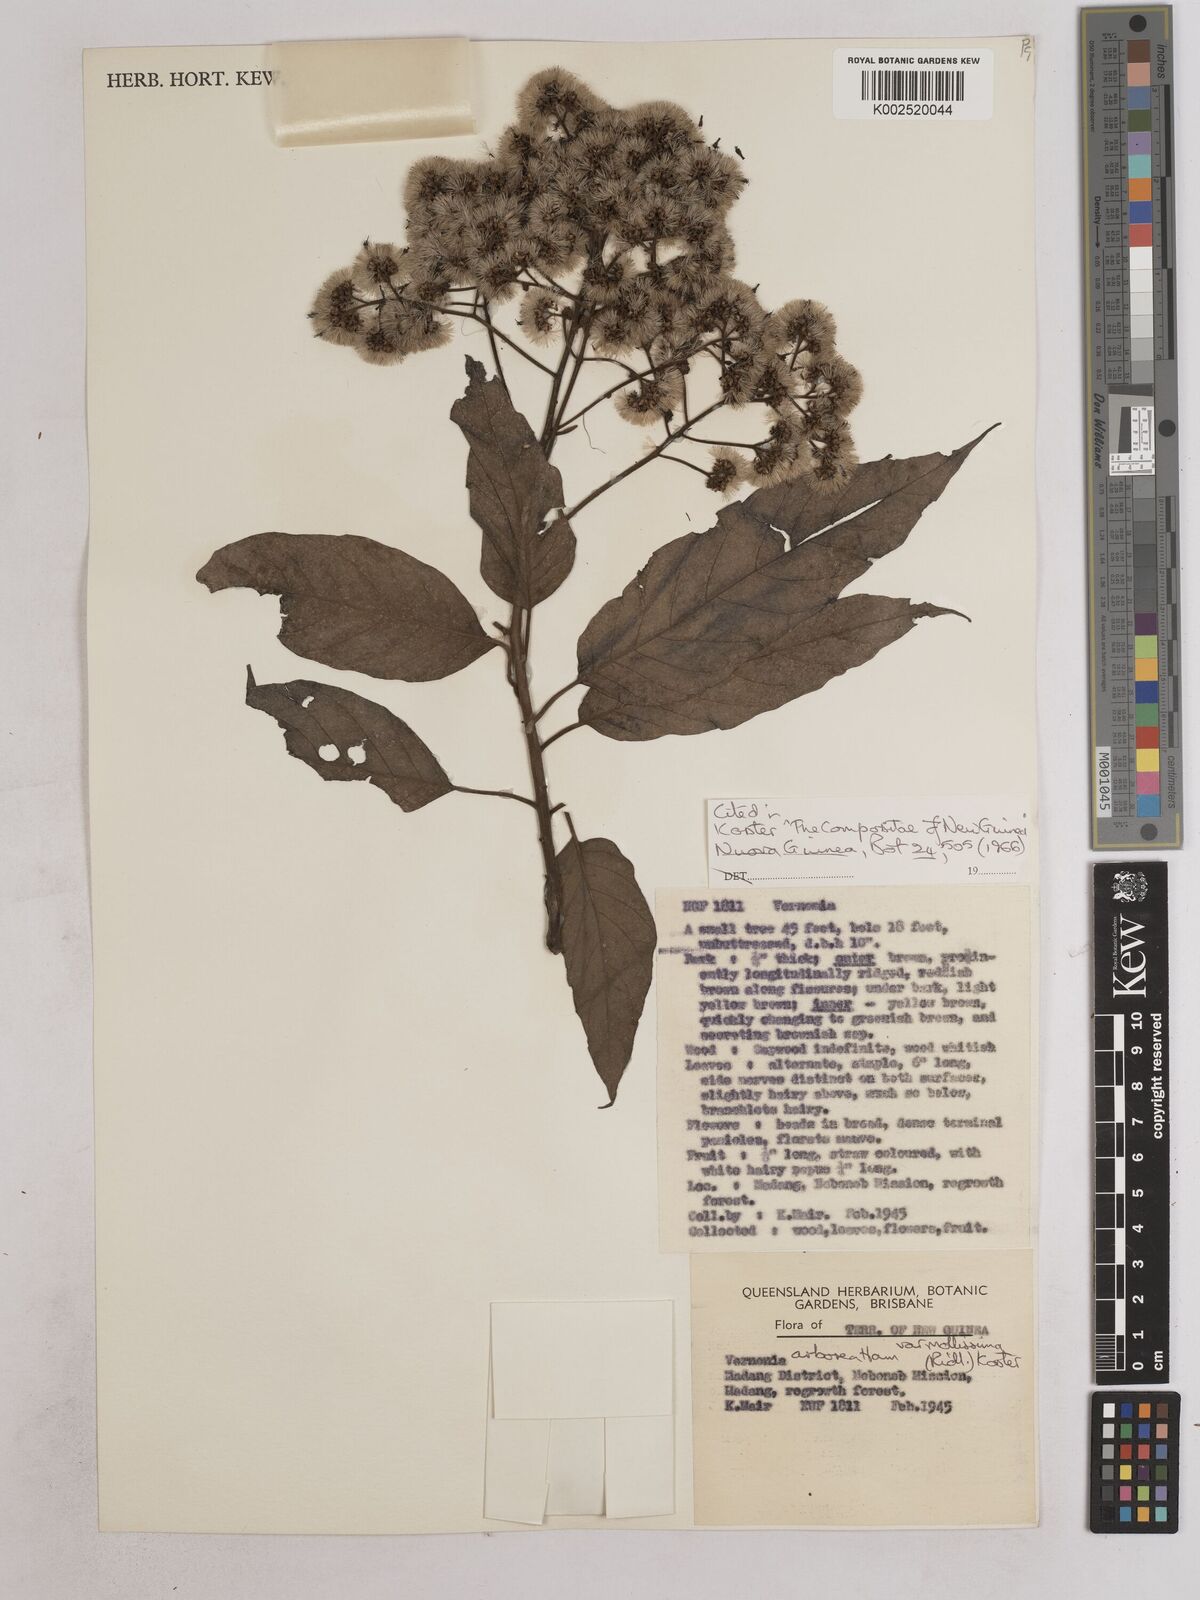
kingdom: Plantae
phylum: Tracheophyta
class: Magnoliopsida
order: Asterales
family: Asteraceae
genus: Strobocalyx
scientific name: Strobocalyx arborea
